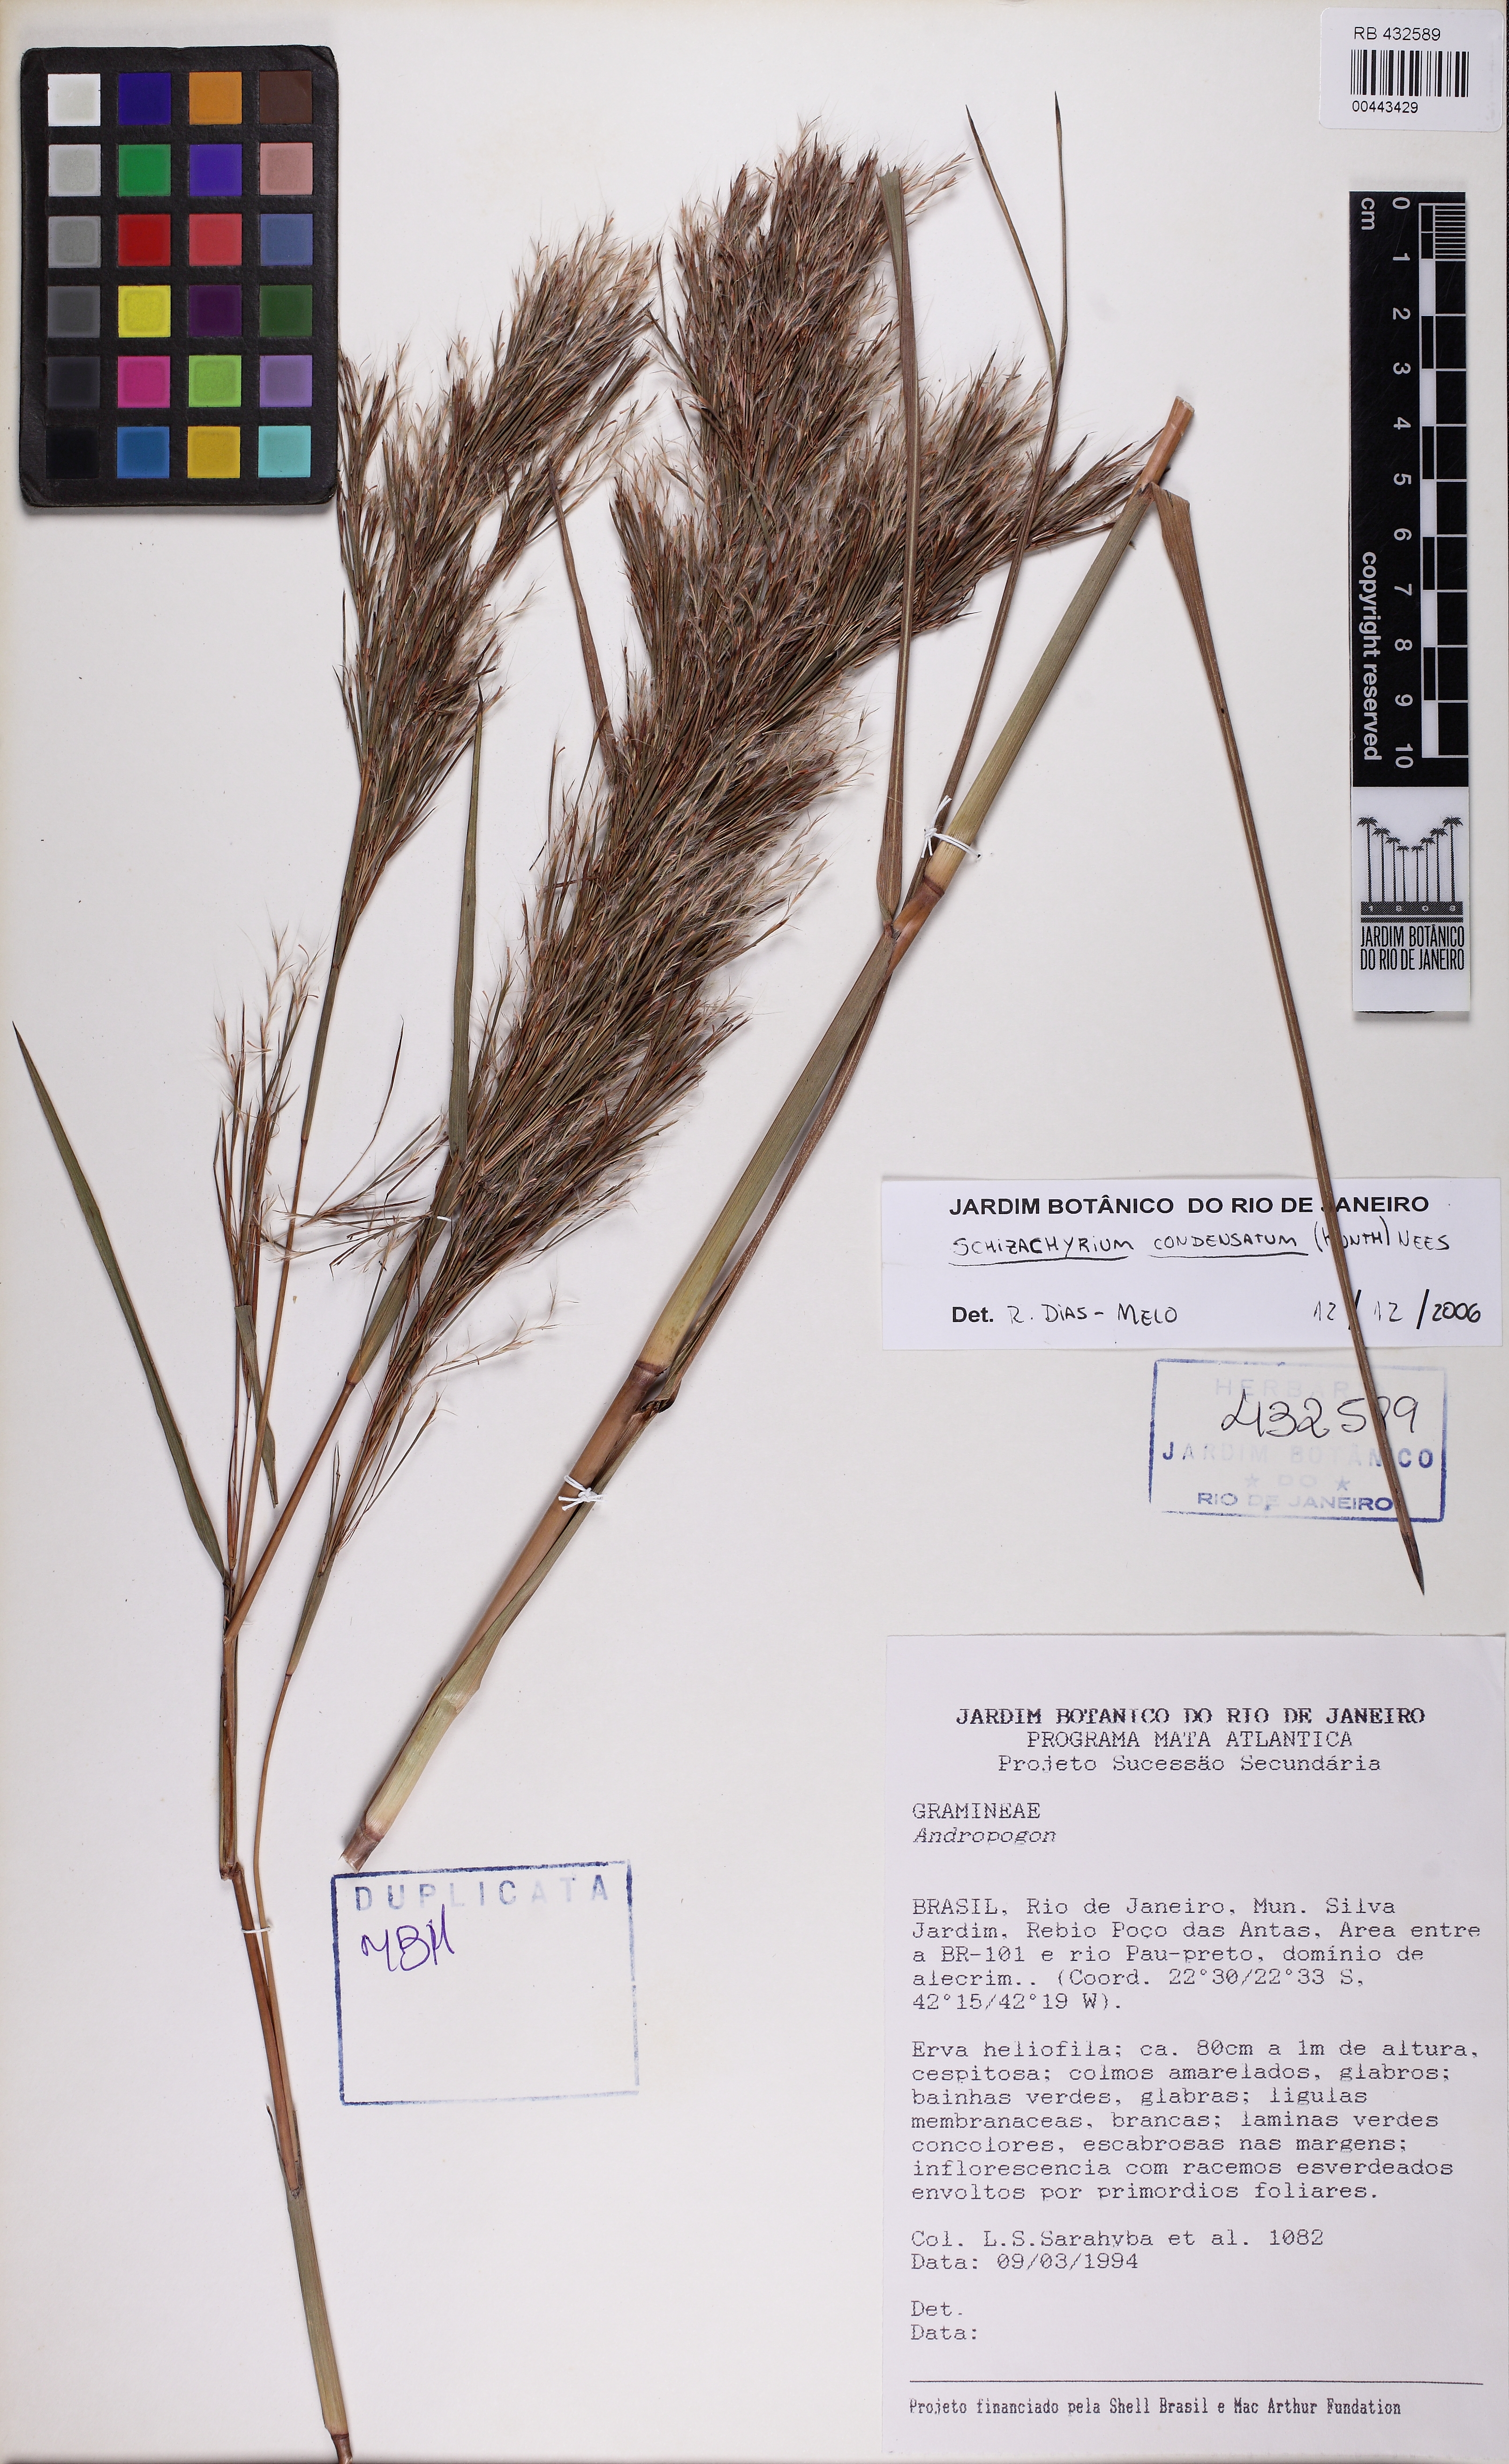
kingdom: Plantae
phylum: Tracheophyta
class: Liliopsida
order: Poales
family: Poaceae
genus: Schizachyrium
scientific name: Schizachyrium condensatum
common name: Bush beardgrass
